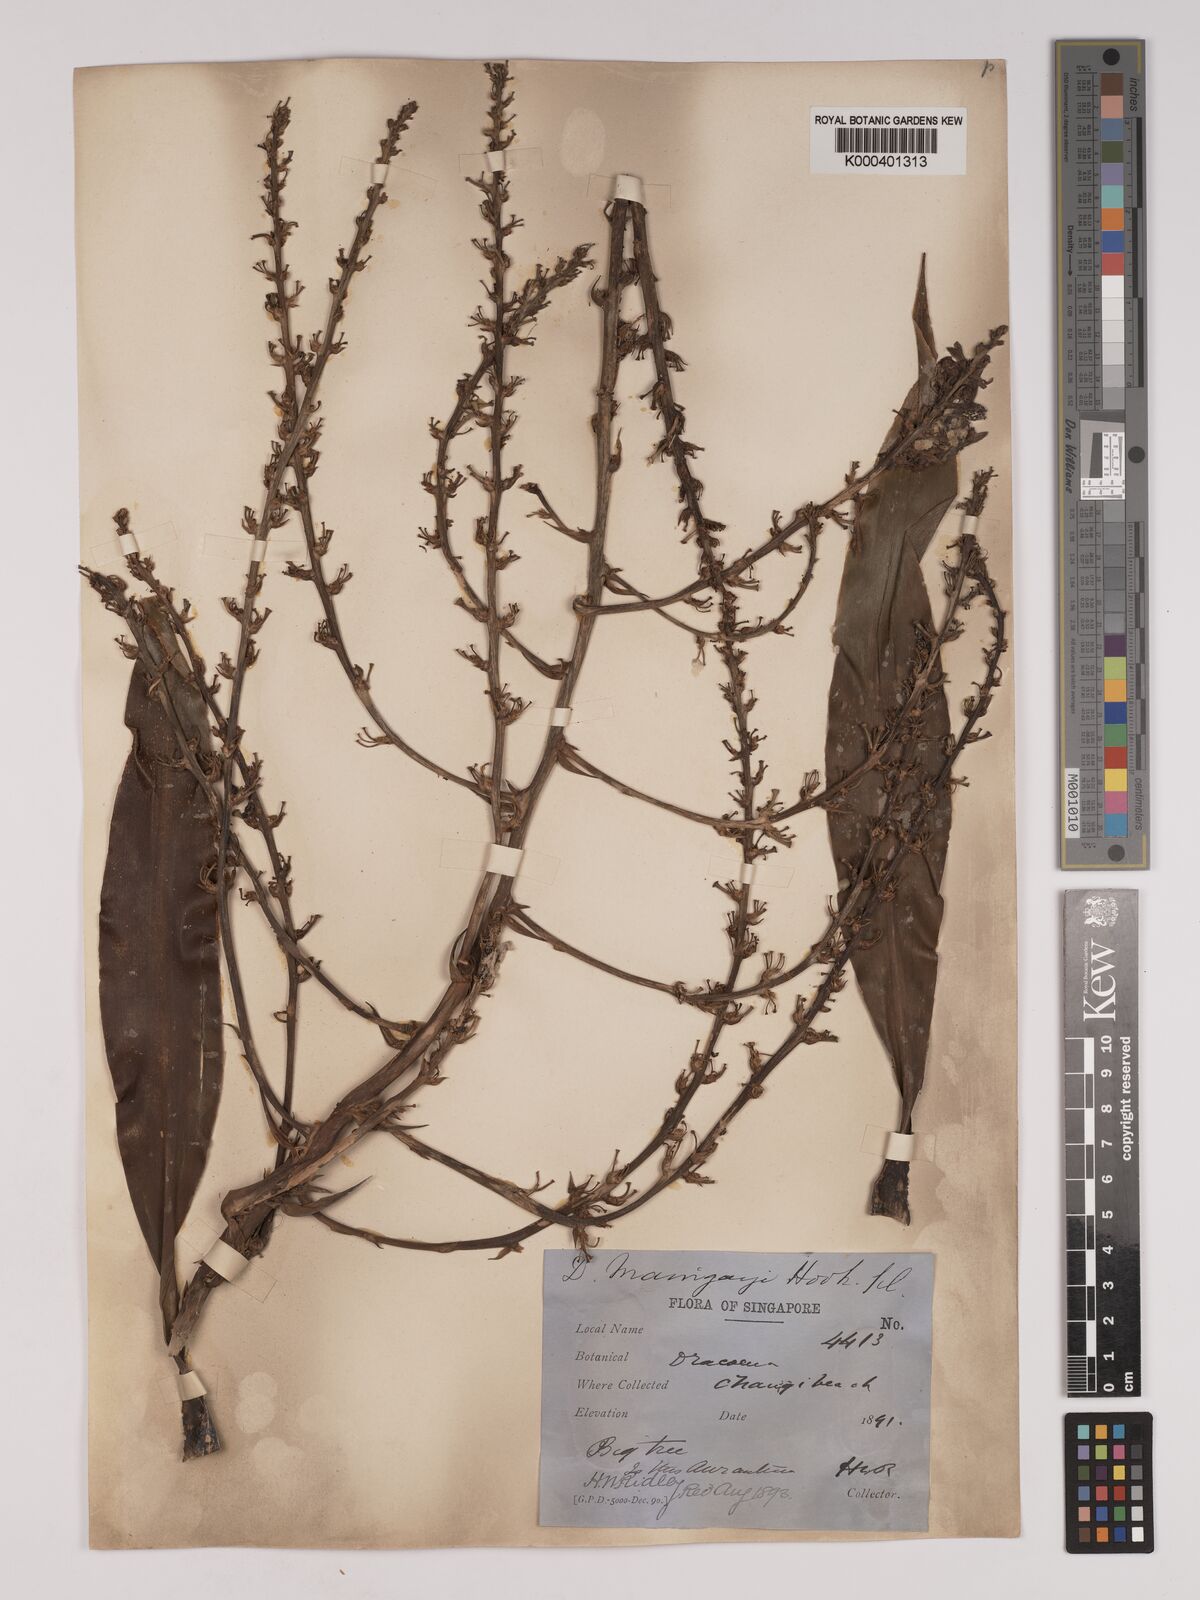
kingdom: Plantae
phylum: Tracheophyta
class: Liliopsida
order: Asparagales
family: Asparagaceae
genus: Dracaena
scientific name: Dracaena maingayi
